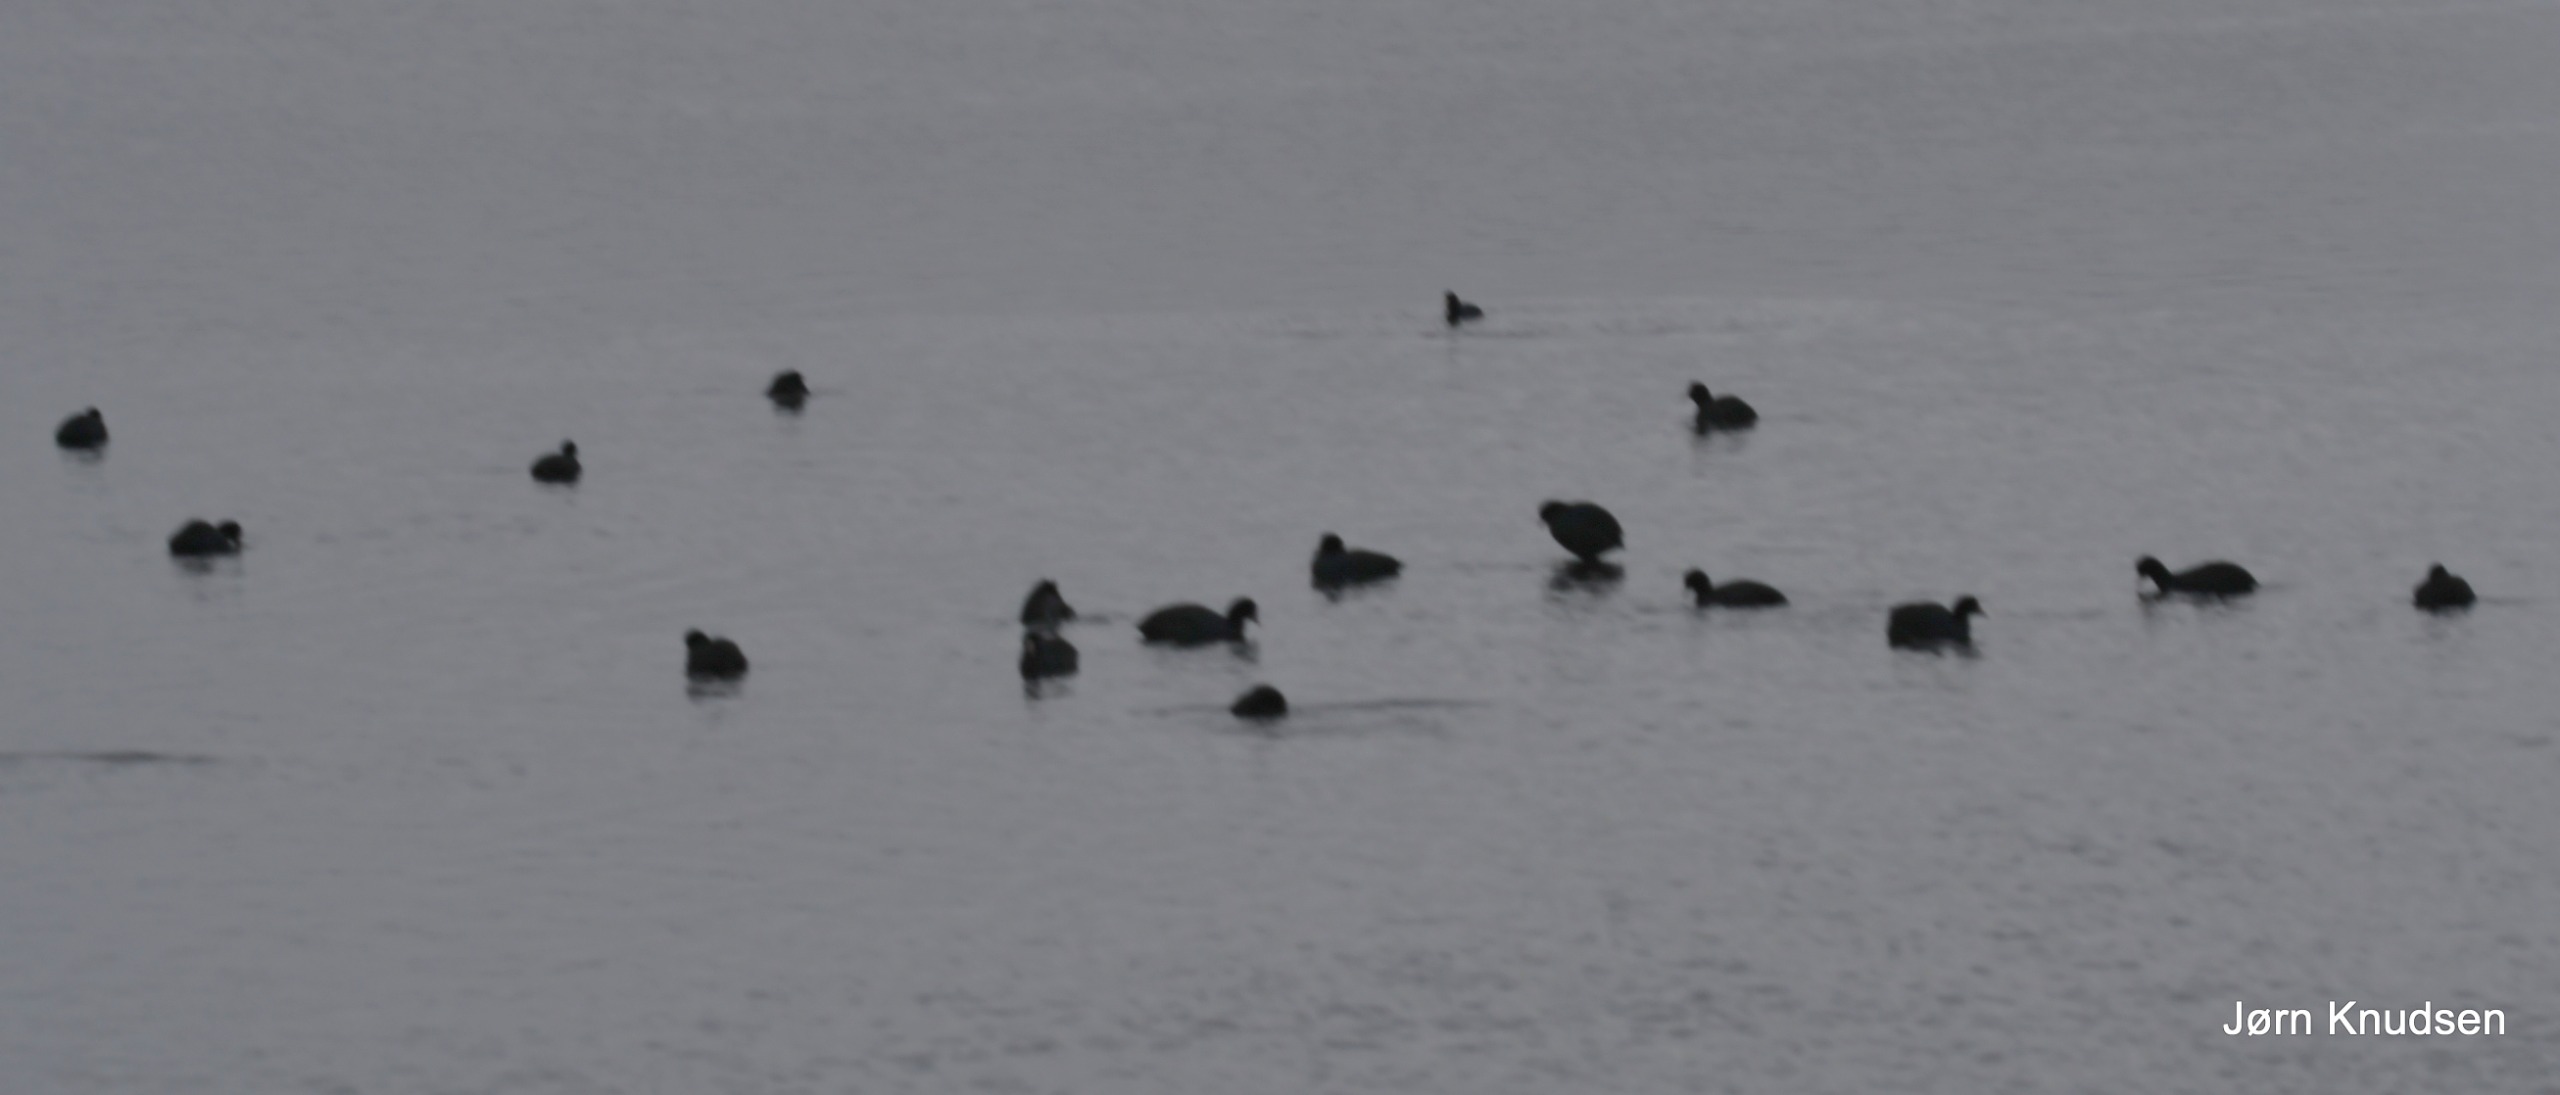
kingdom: Animalia
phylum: Chordata
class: Aves
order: Gruiformes
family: Rallidae
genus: Fulica
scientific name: Fulica atra
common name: Blishøne
